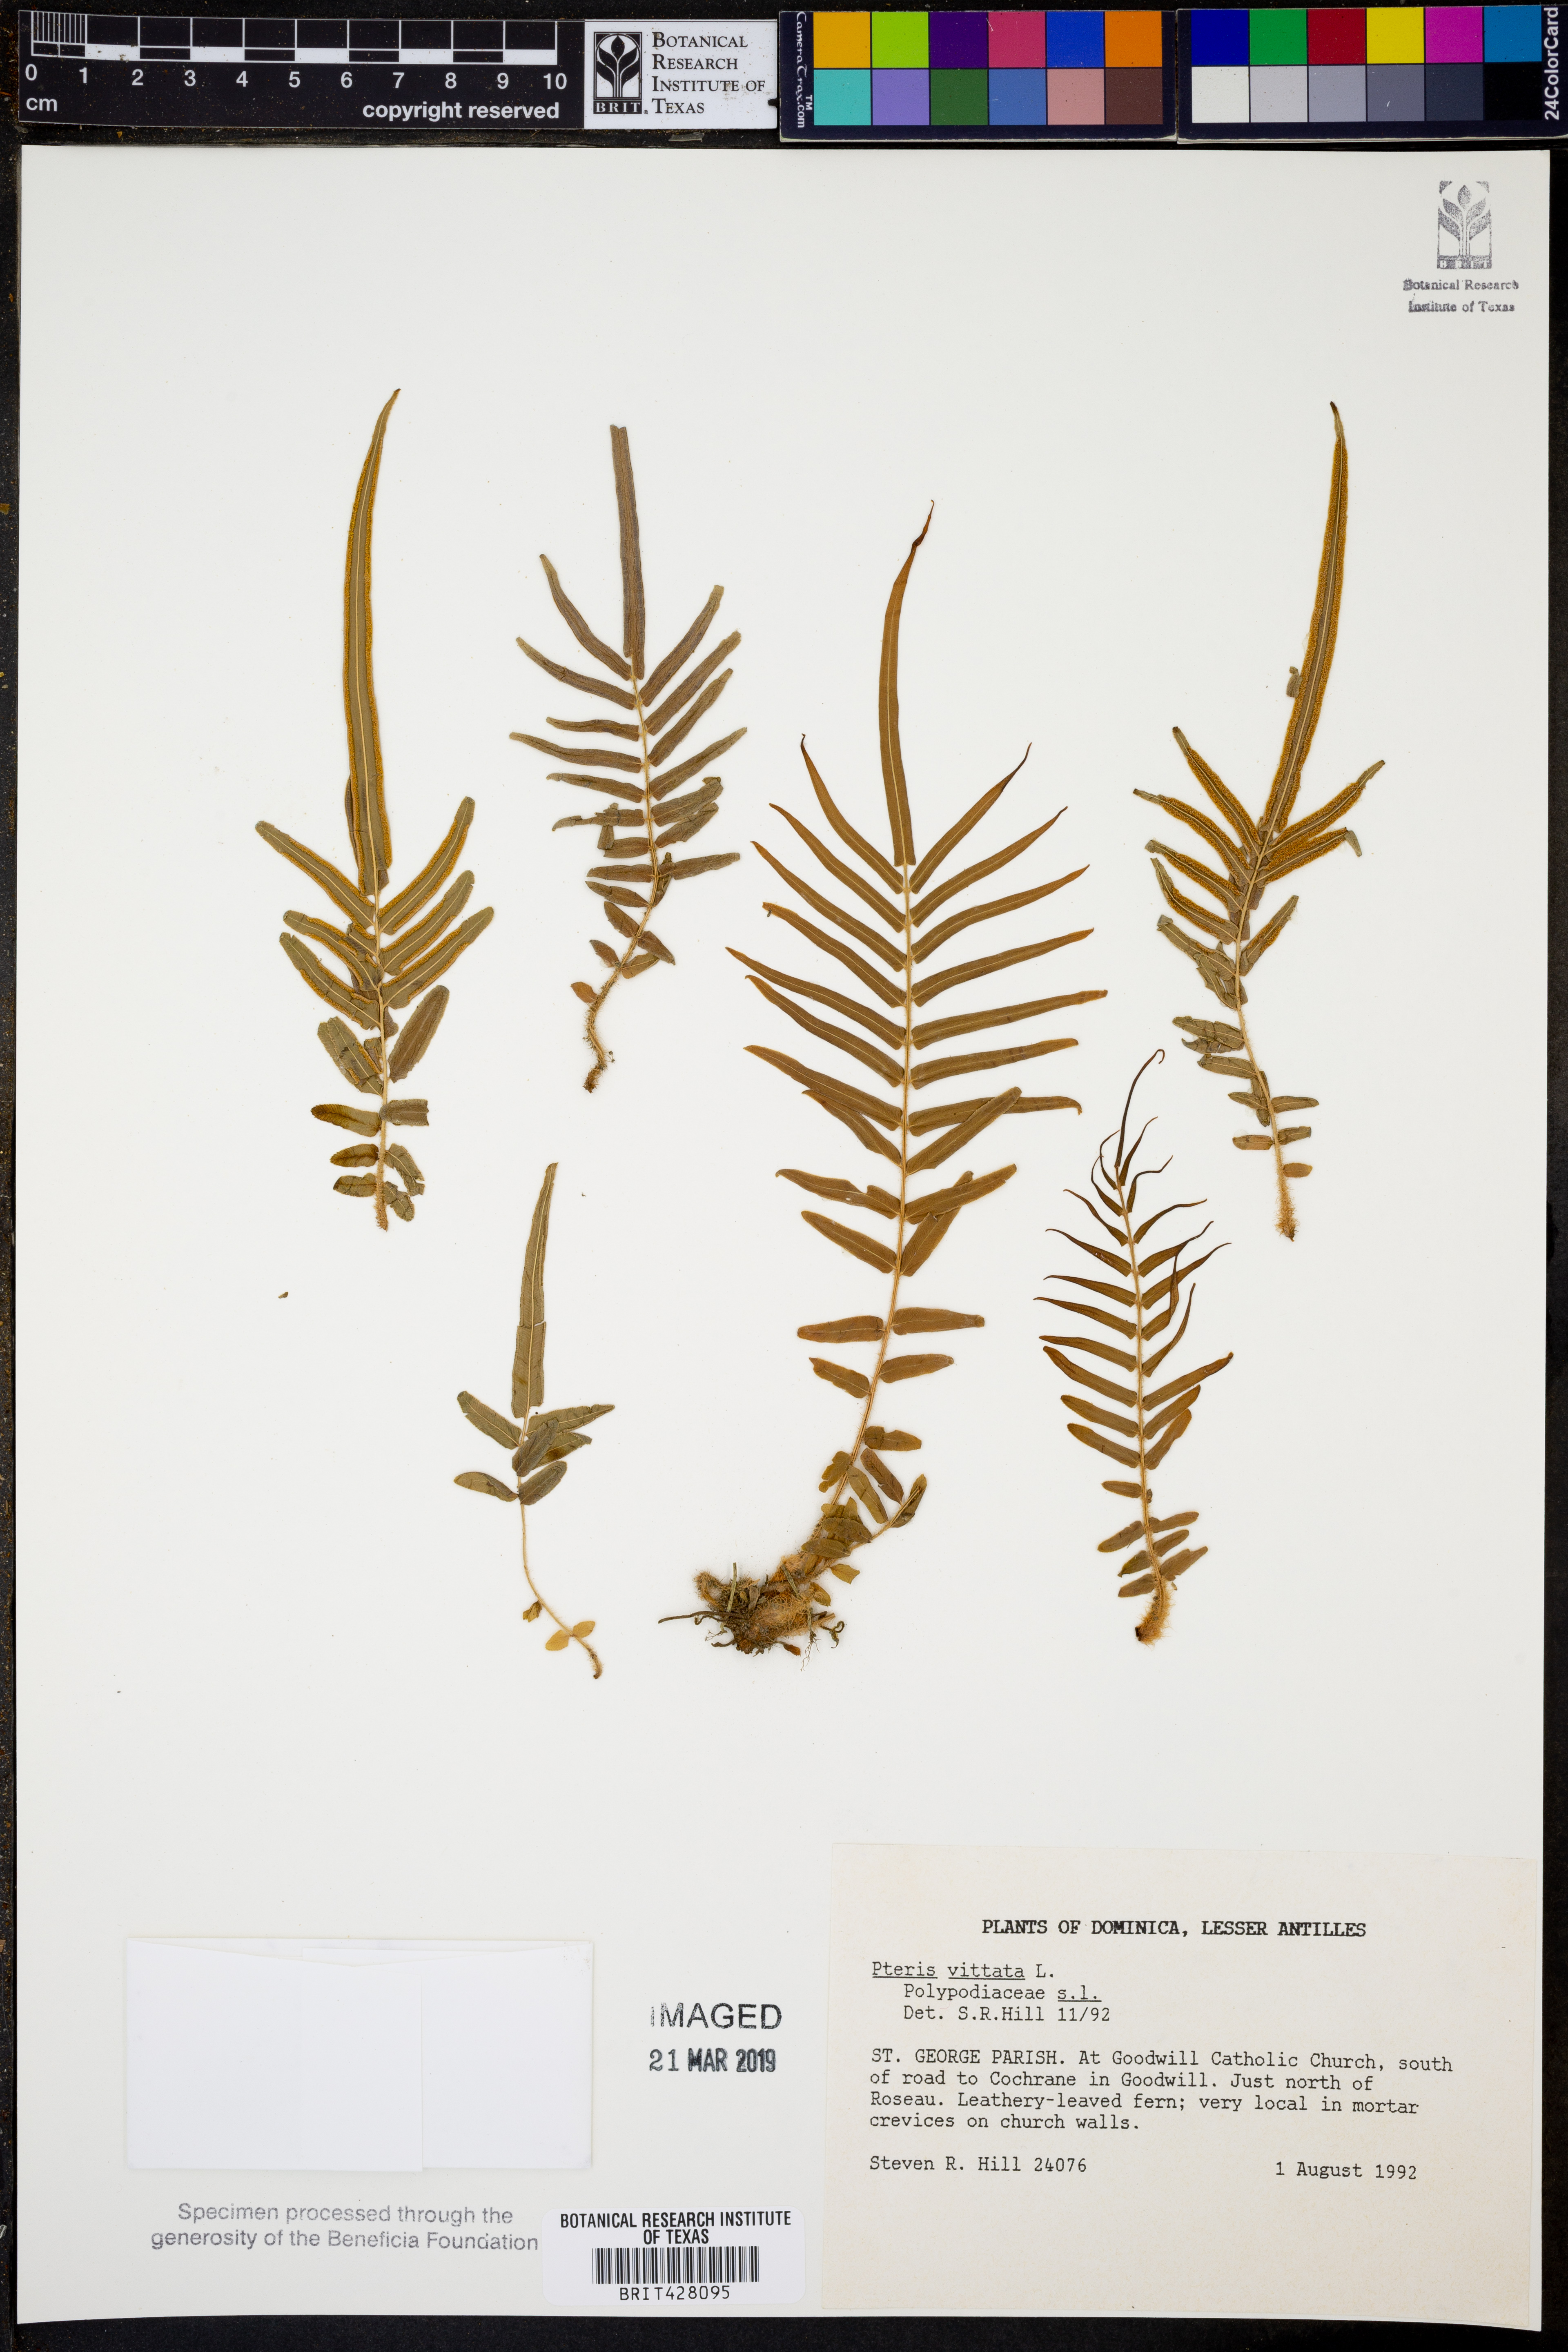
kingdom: Plantae
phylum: Tracheophyta
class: Polypodiopsida
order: Polypodiales
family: Pteridaceae
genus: Pteris
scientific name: Pteris vittata
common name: Ladder brake
